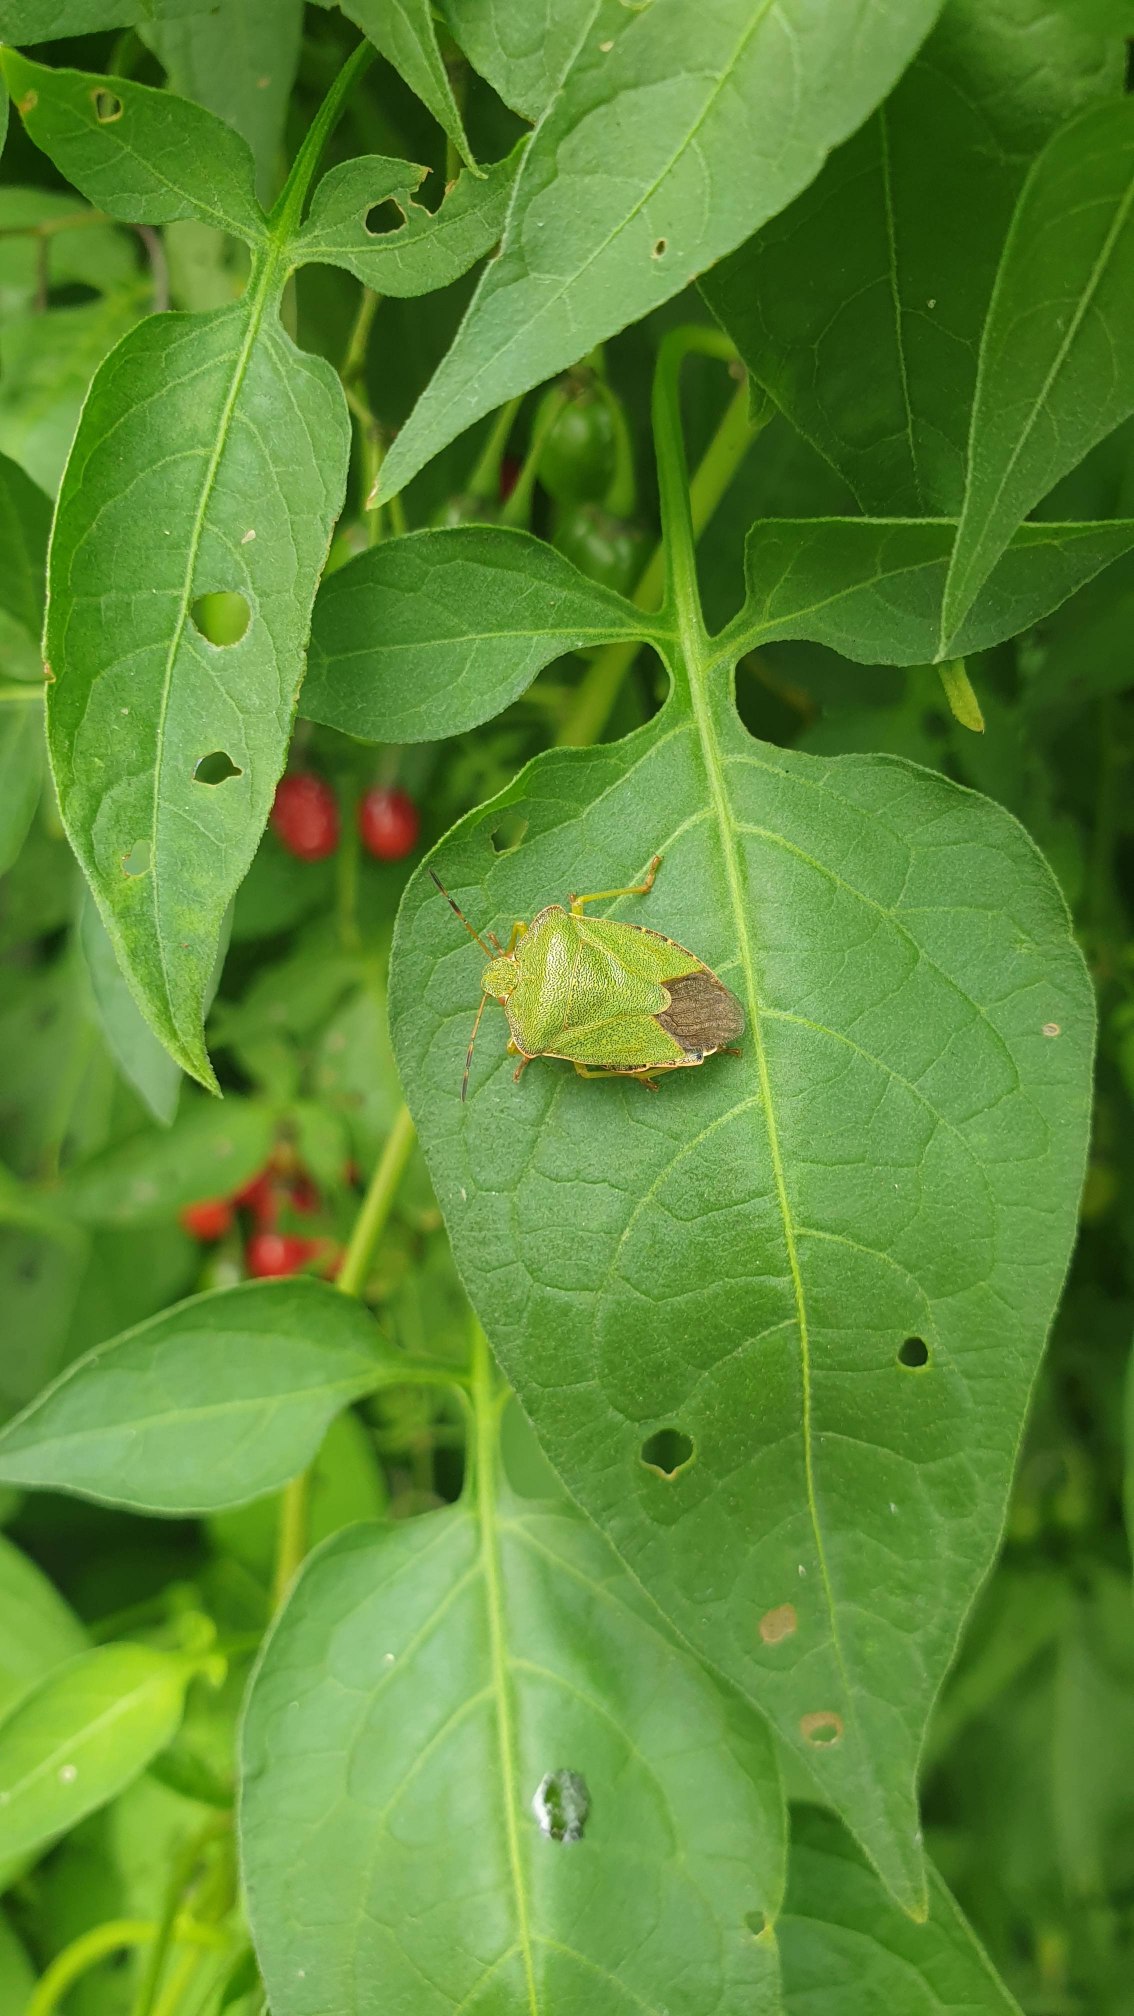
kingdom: Animalia
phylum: Arthropoda
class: Insecta
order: Hemiptera
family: Pentatomidae
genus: Palomena
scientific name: Palomena prasina
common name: Grøn bredtæge
